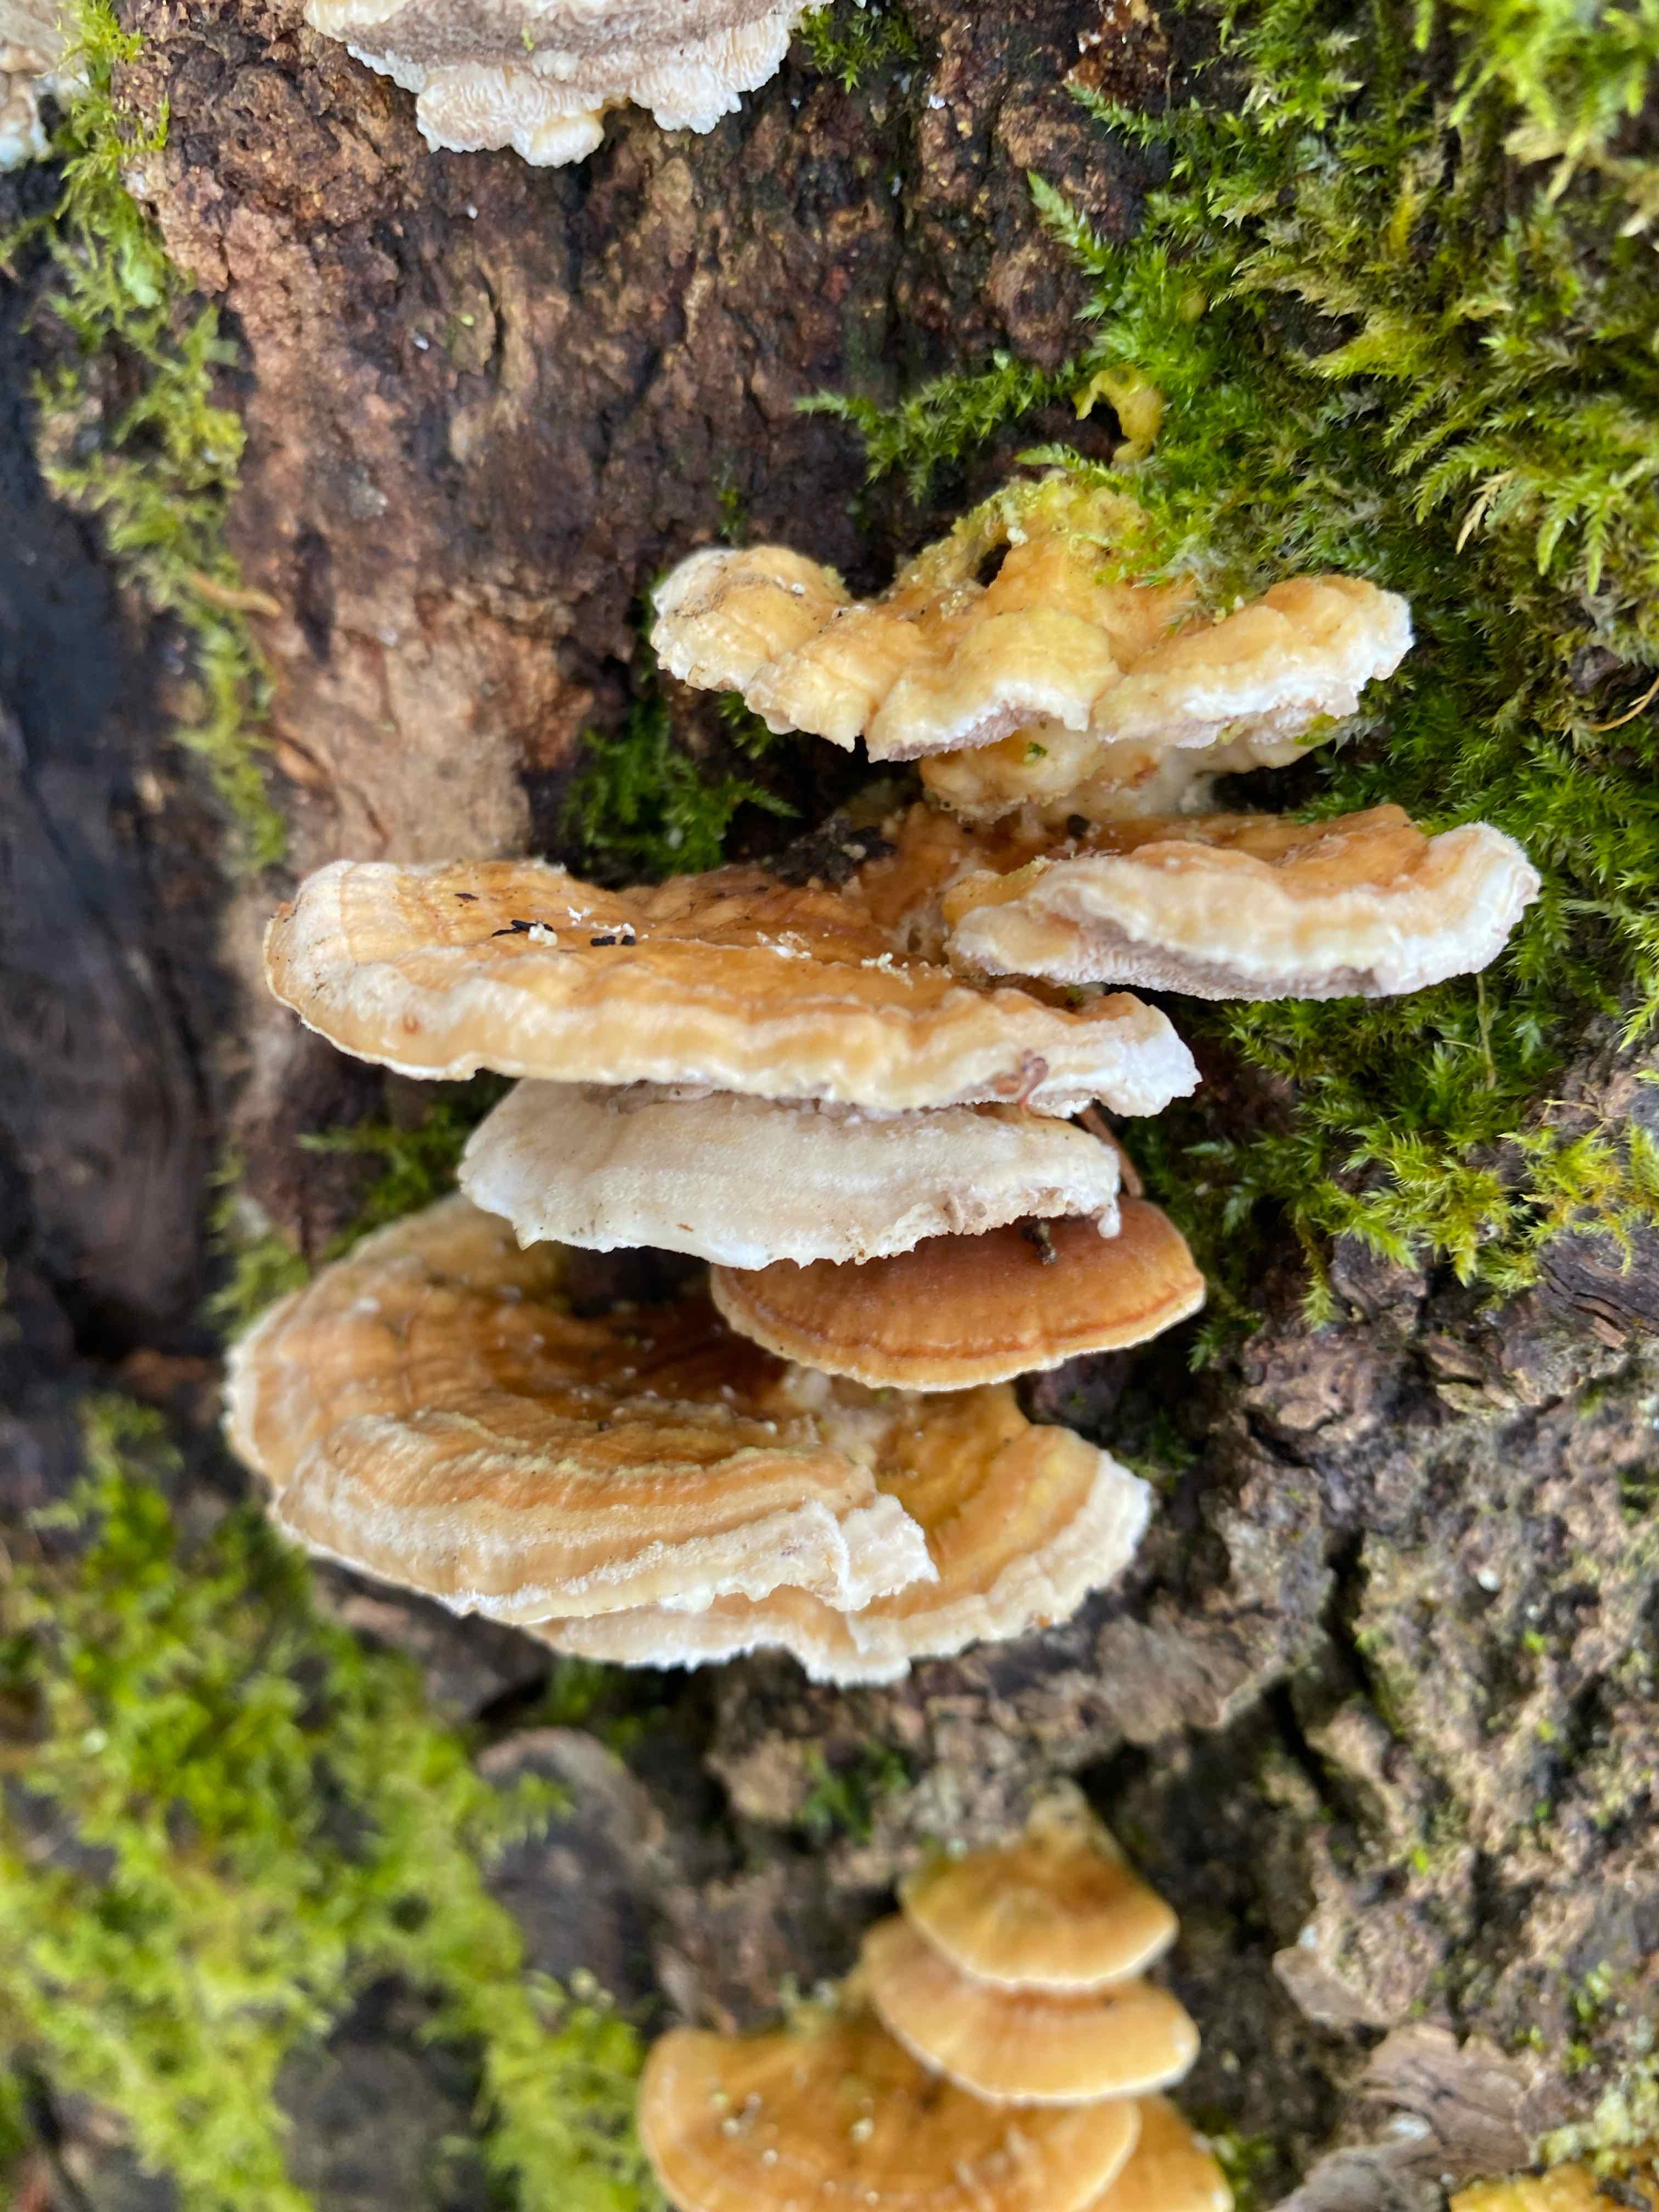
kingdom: Fungi
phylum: Basidiomycota
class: Agaricomycetes
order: Polyporales
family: Polyporaceae
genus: Trametes
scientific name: Trametes ochracea
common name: bæltet læderporesvamp
